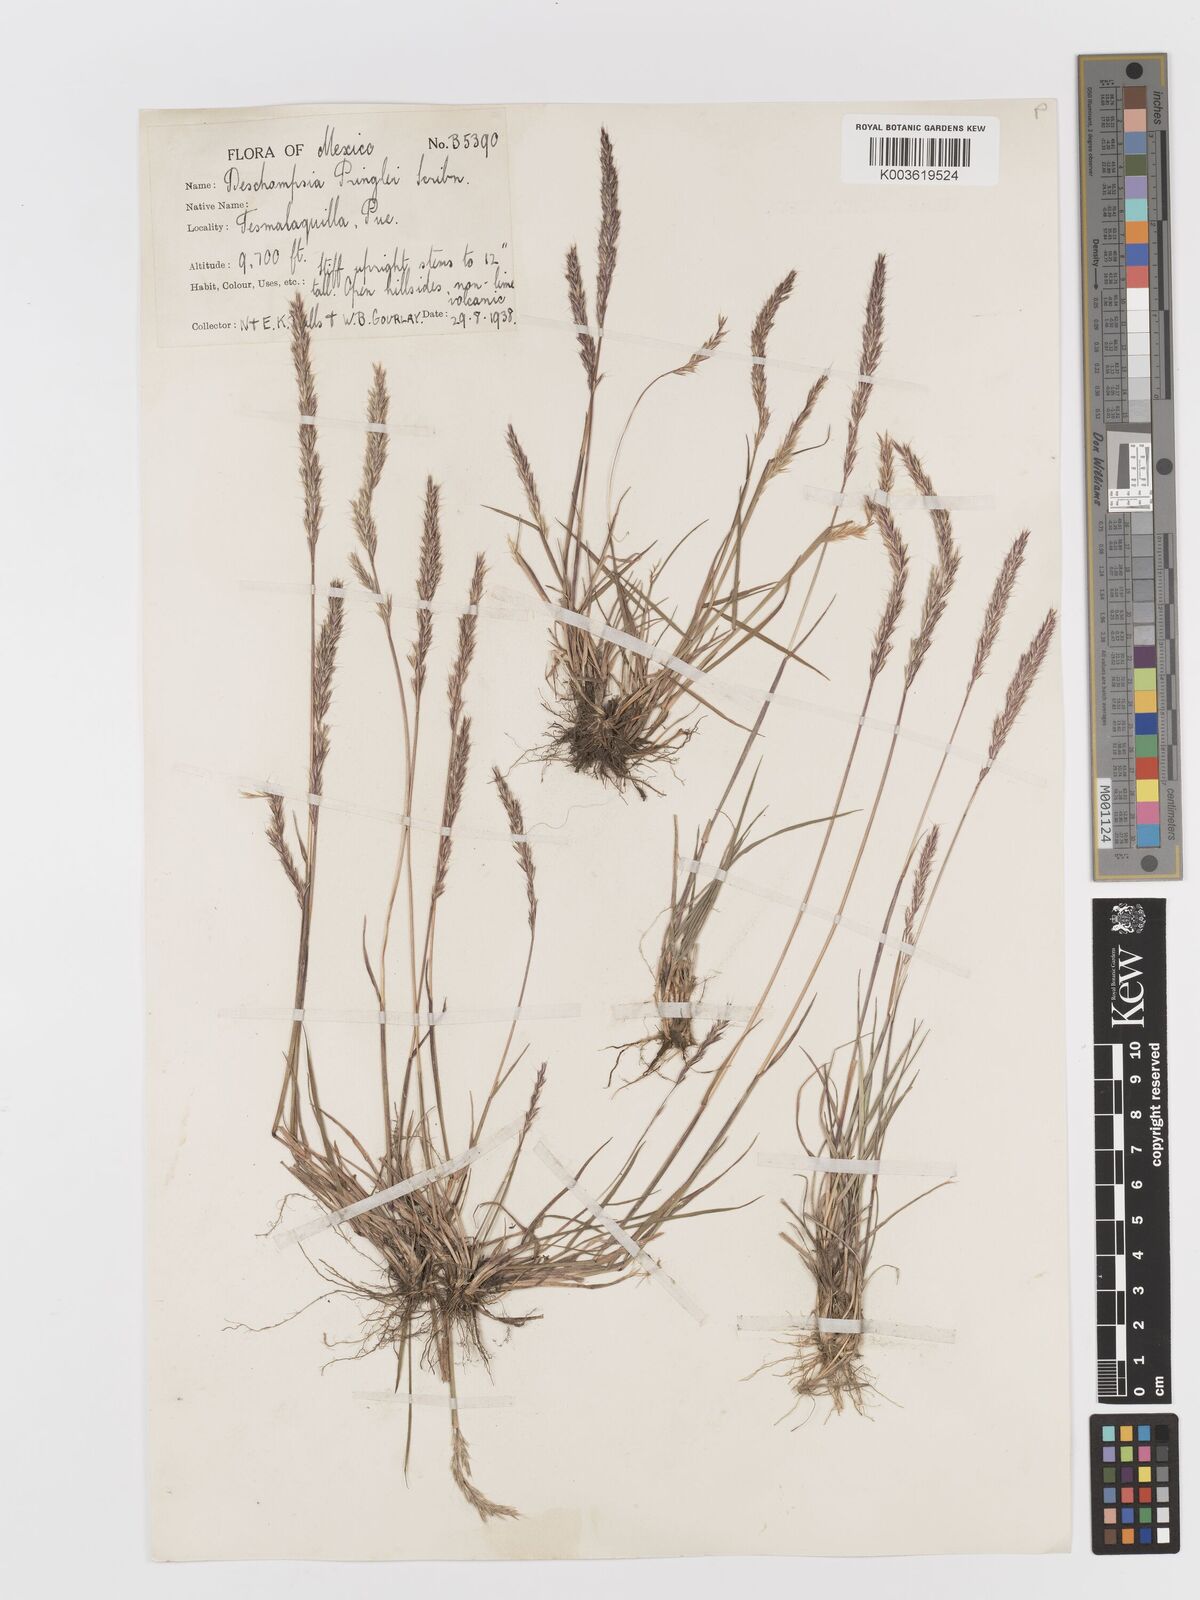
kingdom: Plantae
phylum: Tracheophyta
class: Liliopsida
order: Poales
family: Poaceae
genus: Peyritschia
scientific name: Peyritschia pringlei
